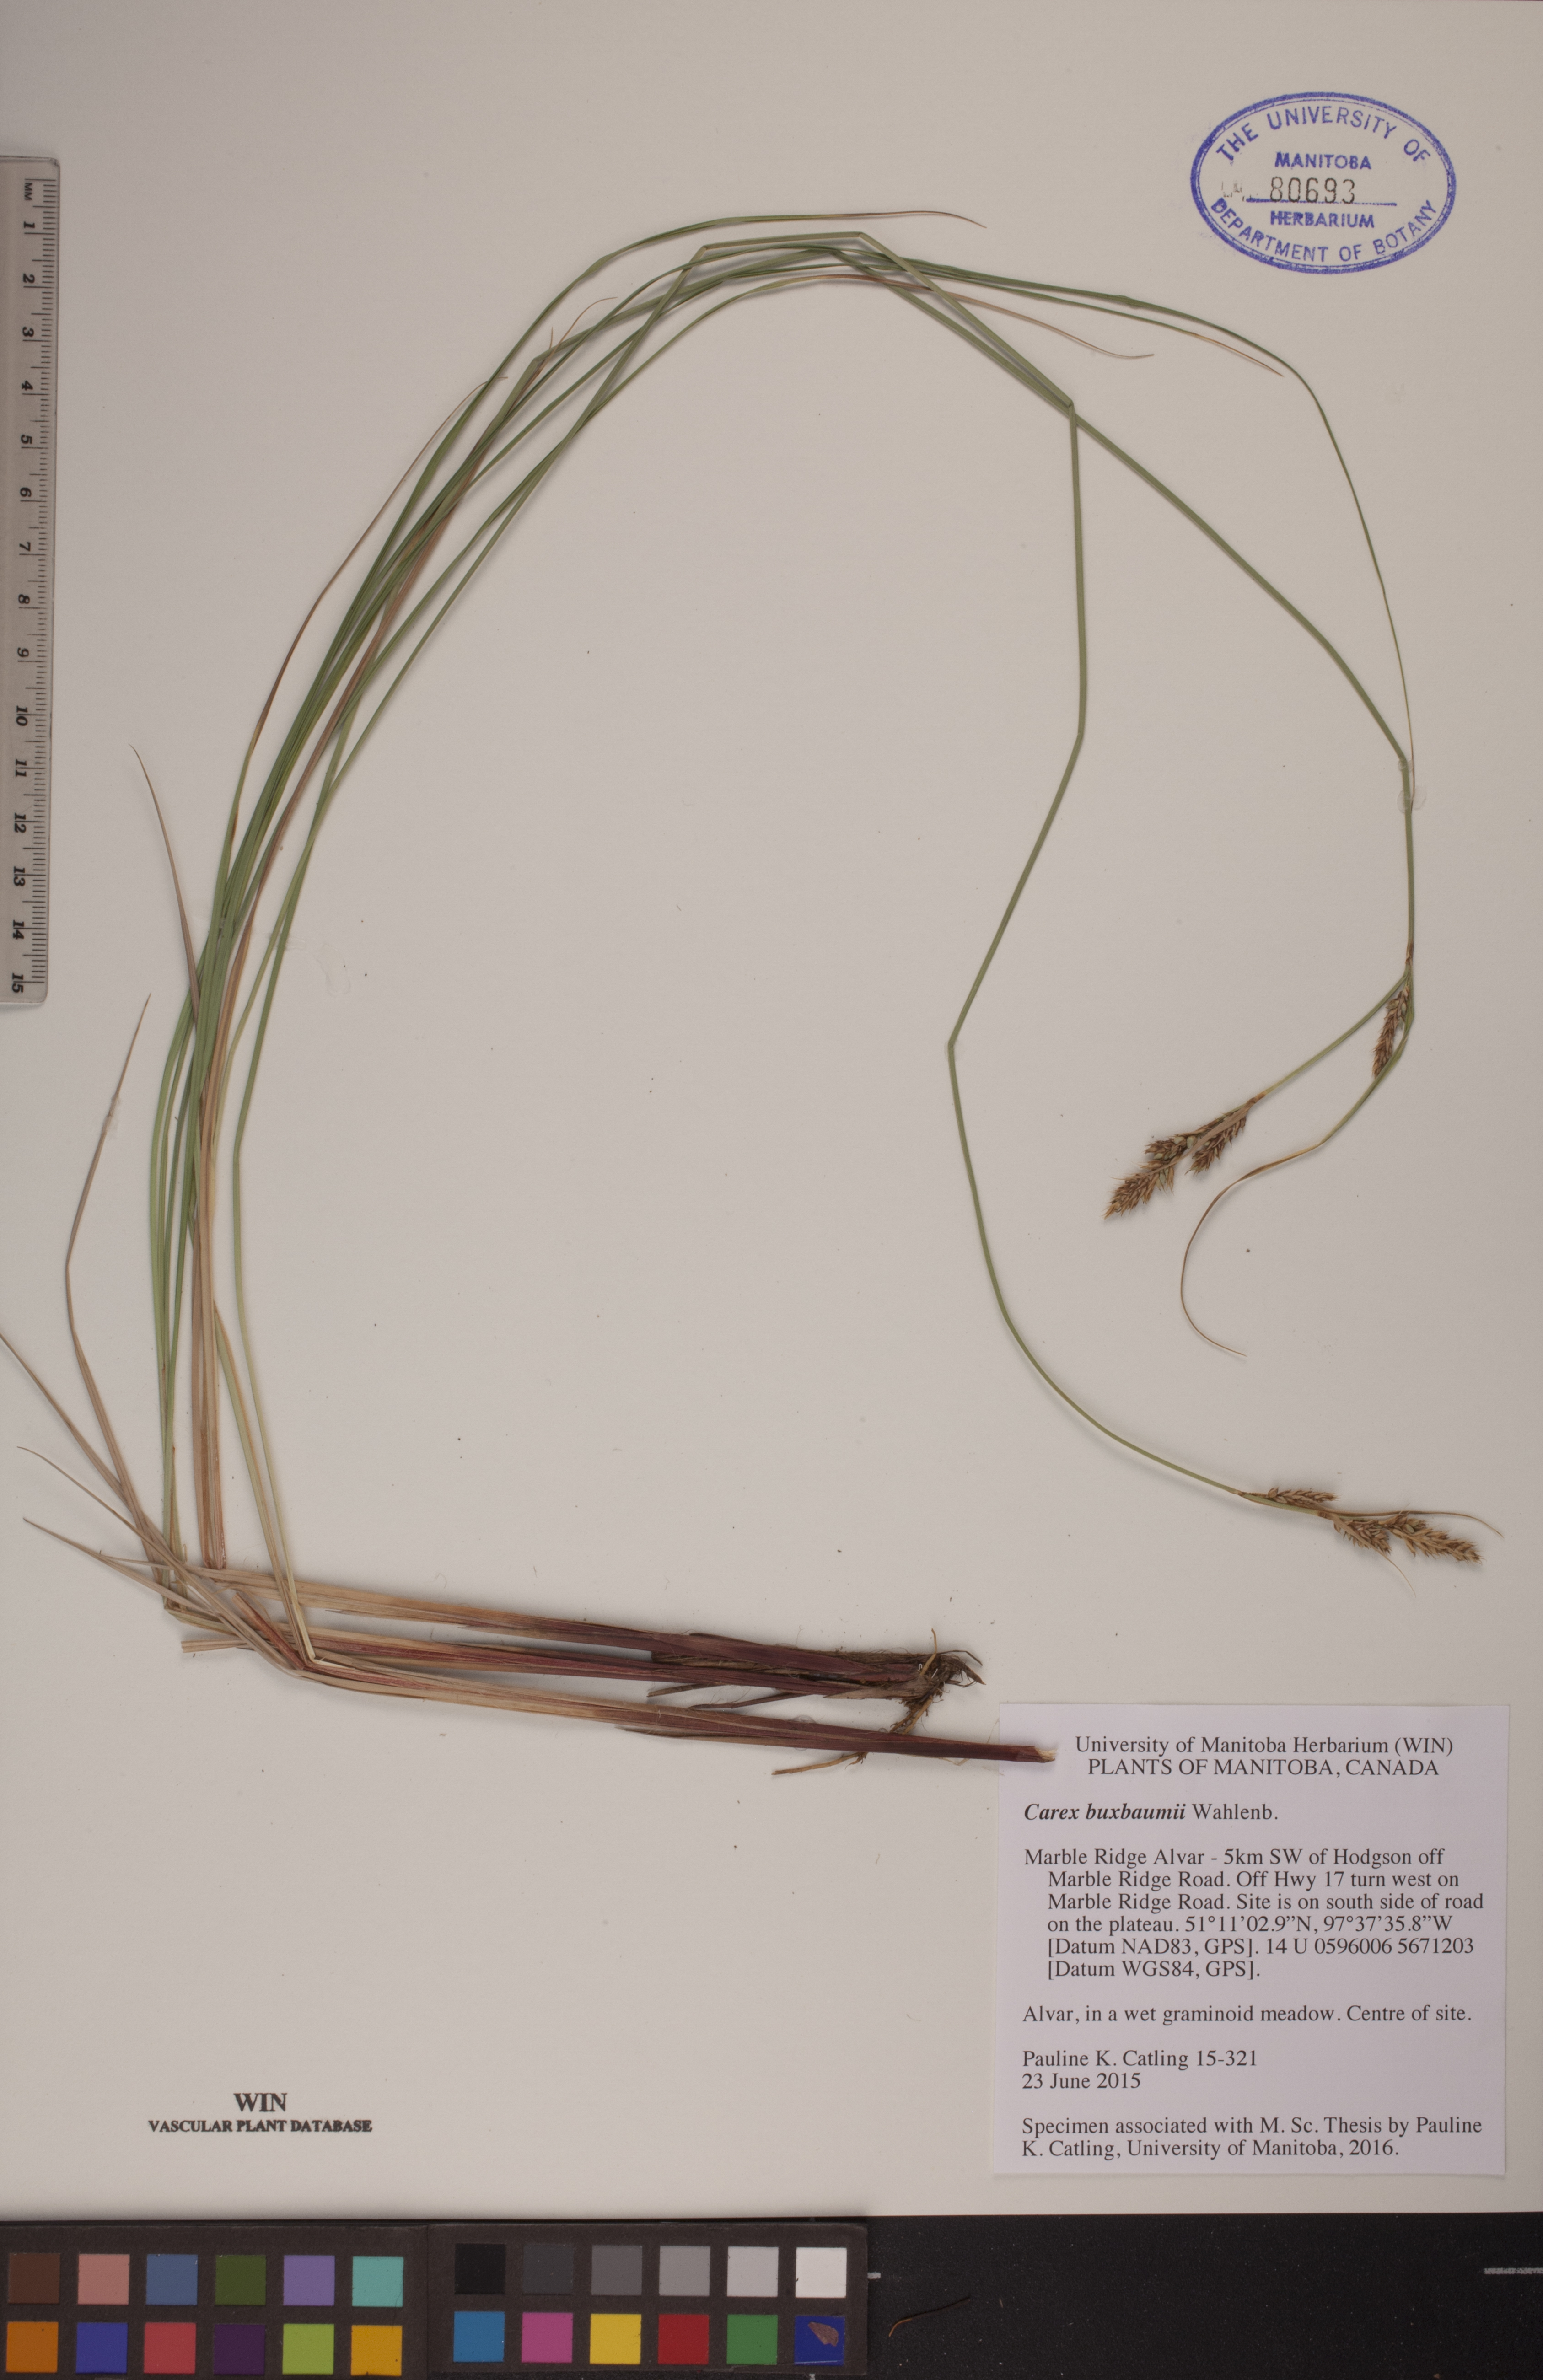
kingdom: Plantae
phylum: Tracheophyta
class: Liliopsida
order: Poales
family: Cyperaceae
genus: Carex
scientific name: Carex buxbaumii
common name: Club sedge
